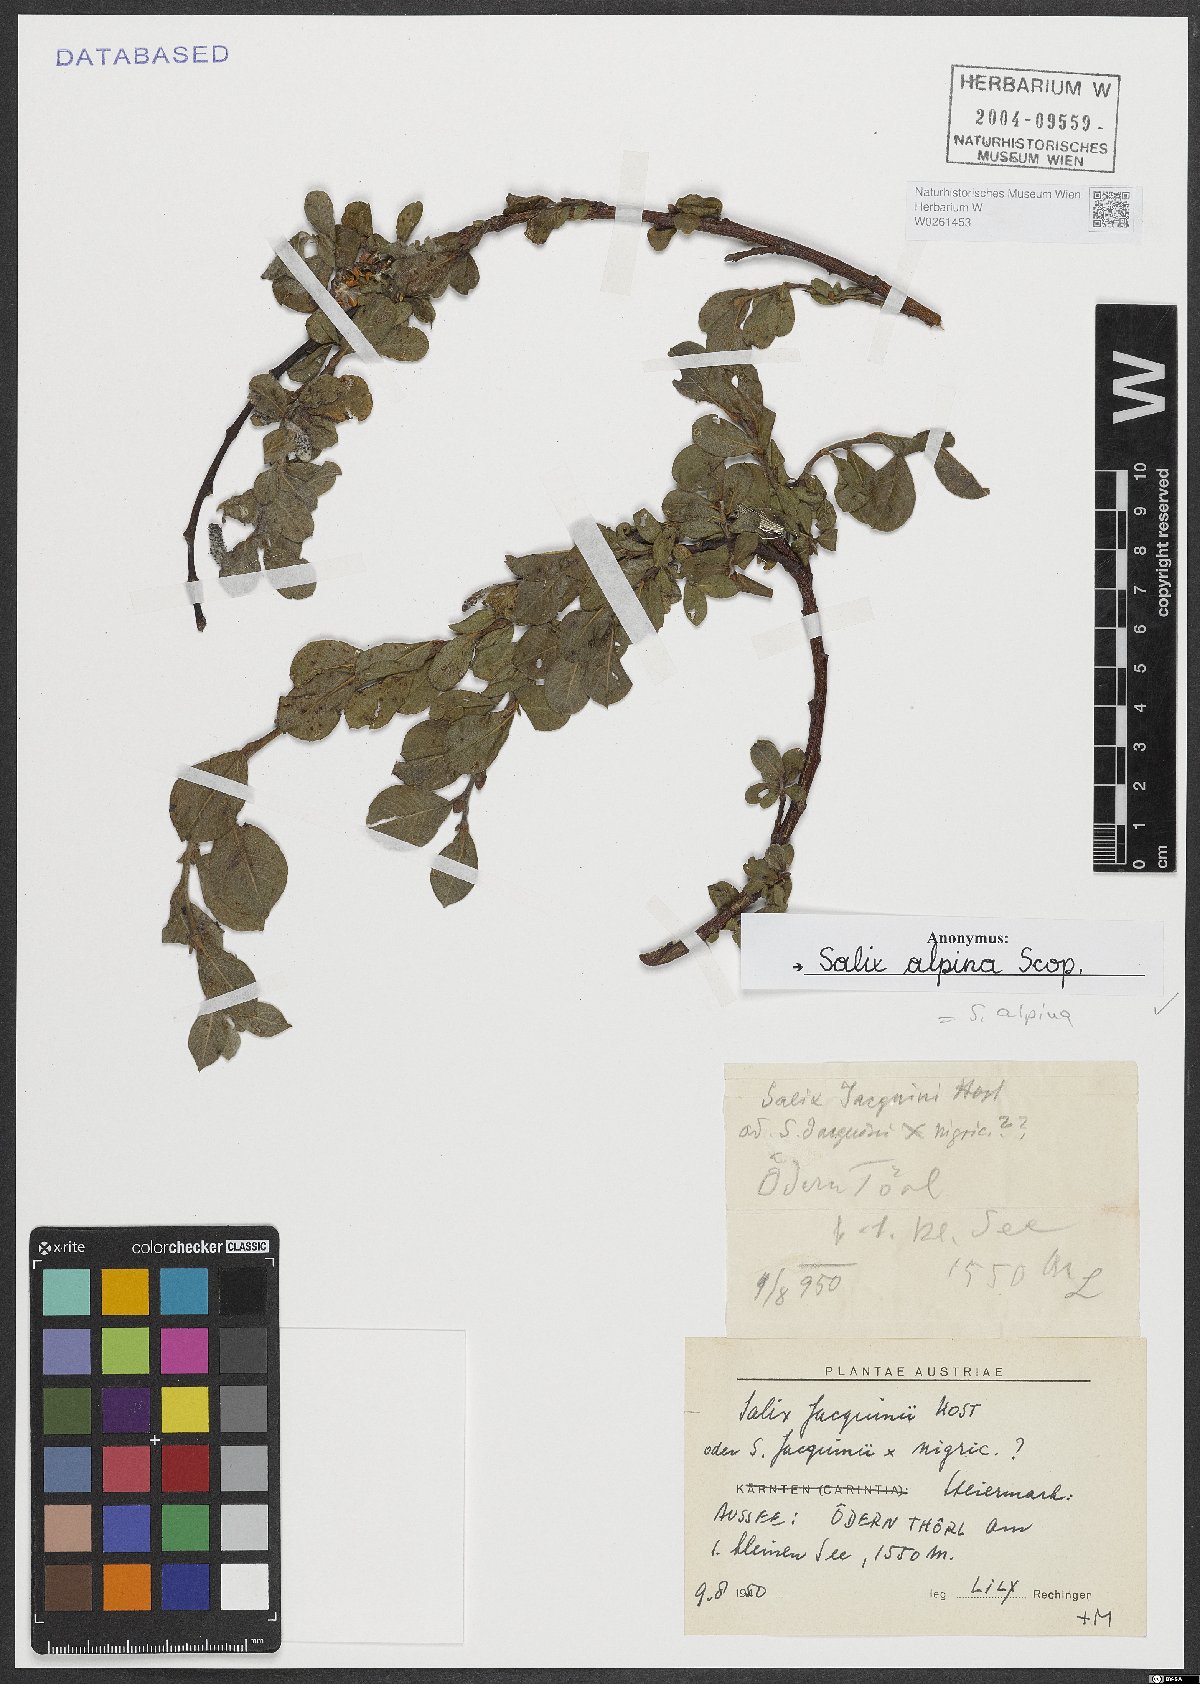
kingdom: Plantae
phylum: Tracheophyta
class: Magnoliopsida
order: Malpighiales
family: Salicaceae
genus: Salix
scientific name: Salix alpina
